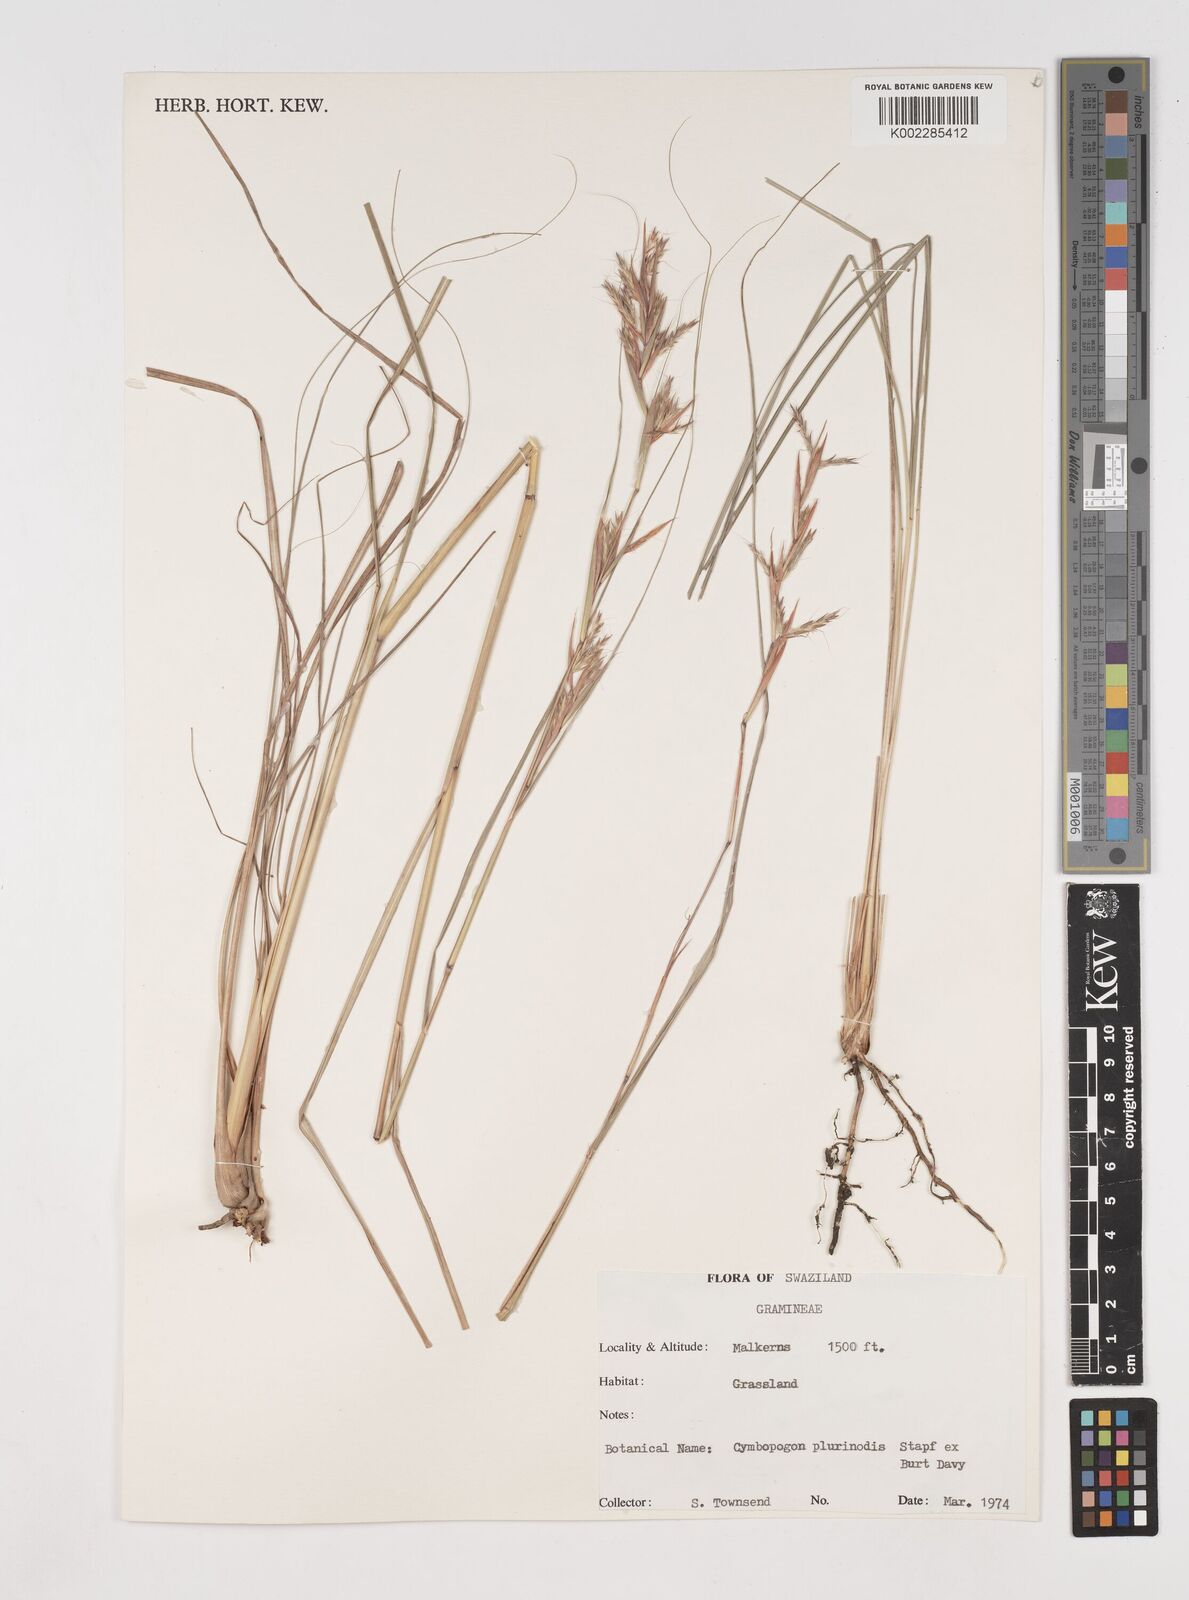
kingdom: Plantae
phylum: Tracheophyta
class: Liliopsida
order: Poales
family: Poaceae
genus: Cymbopogon
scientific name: Cymbopogon
